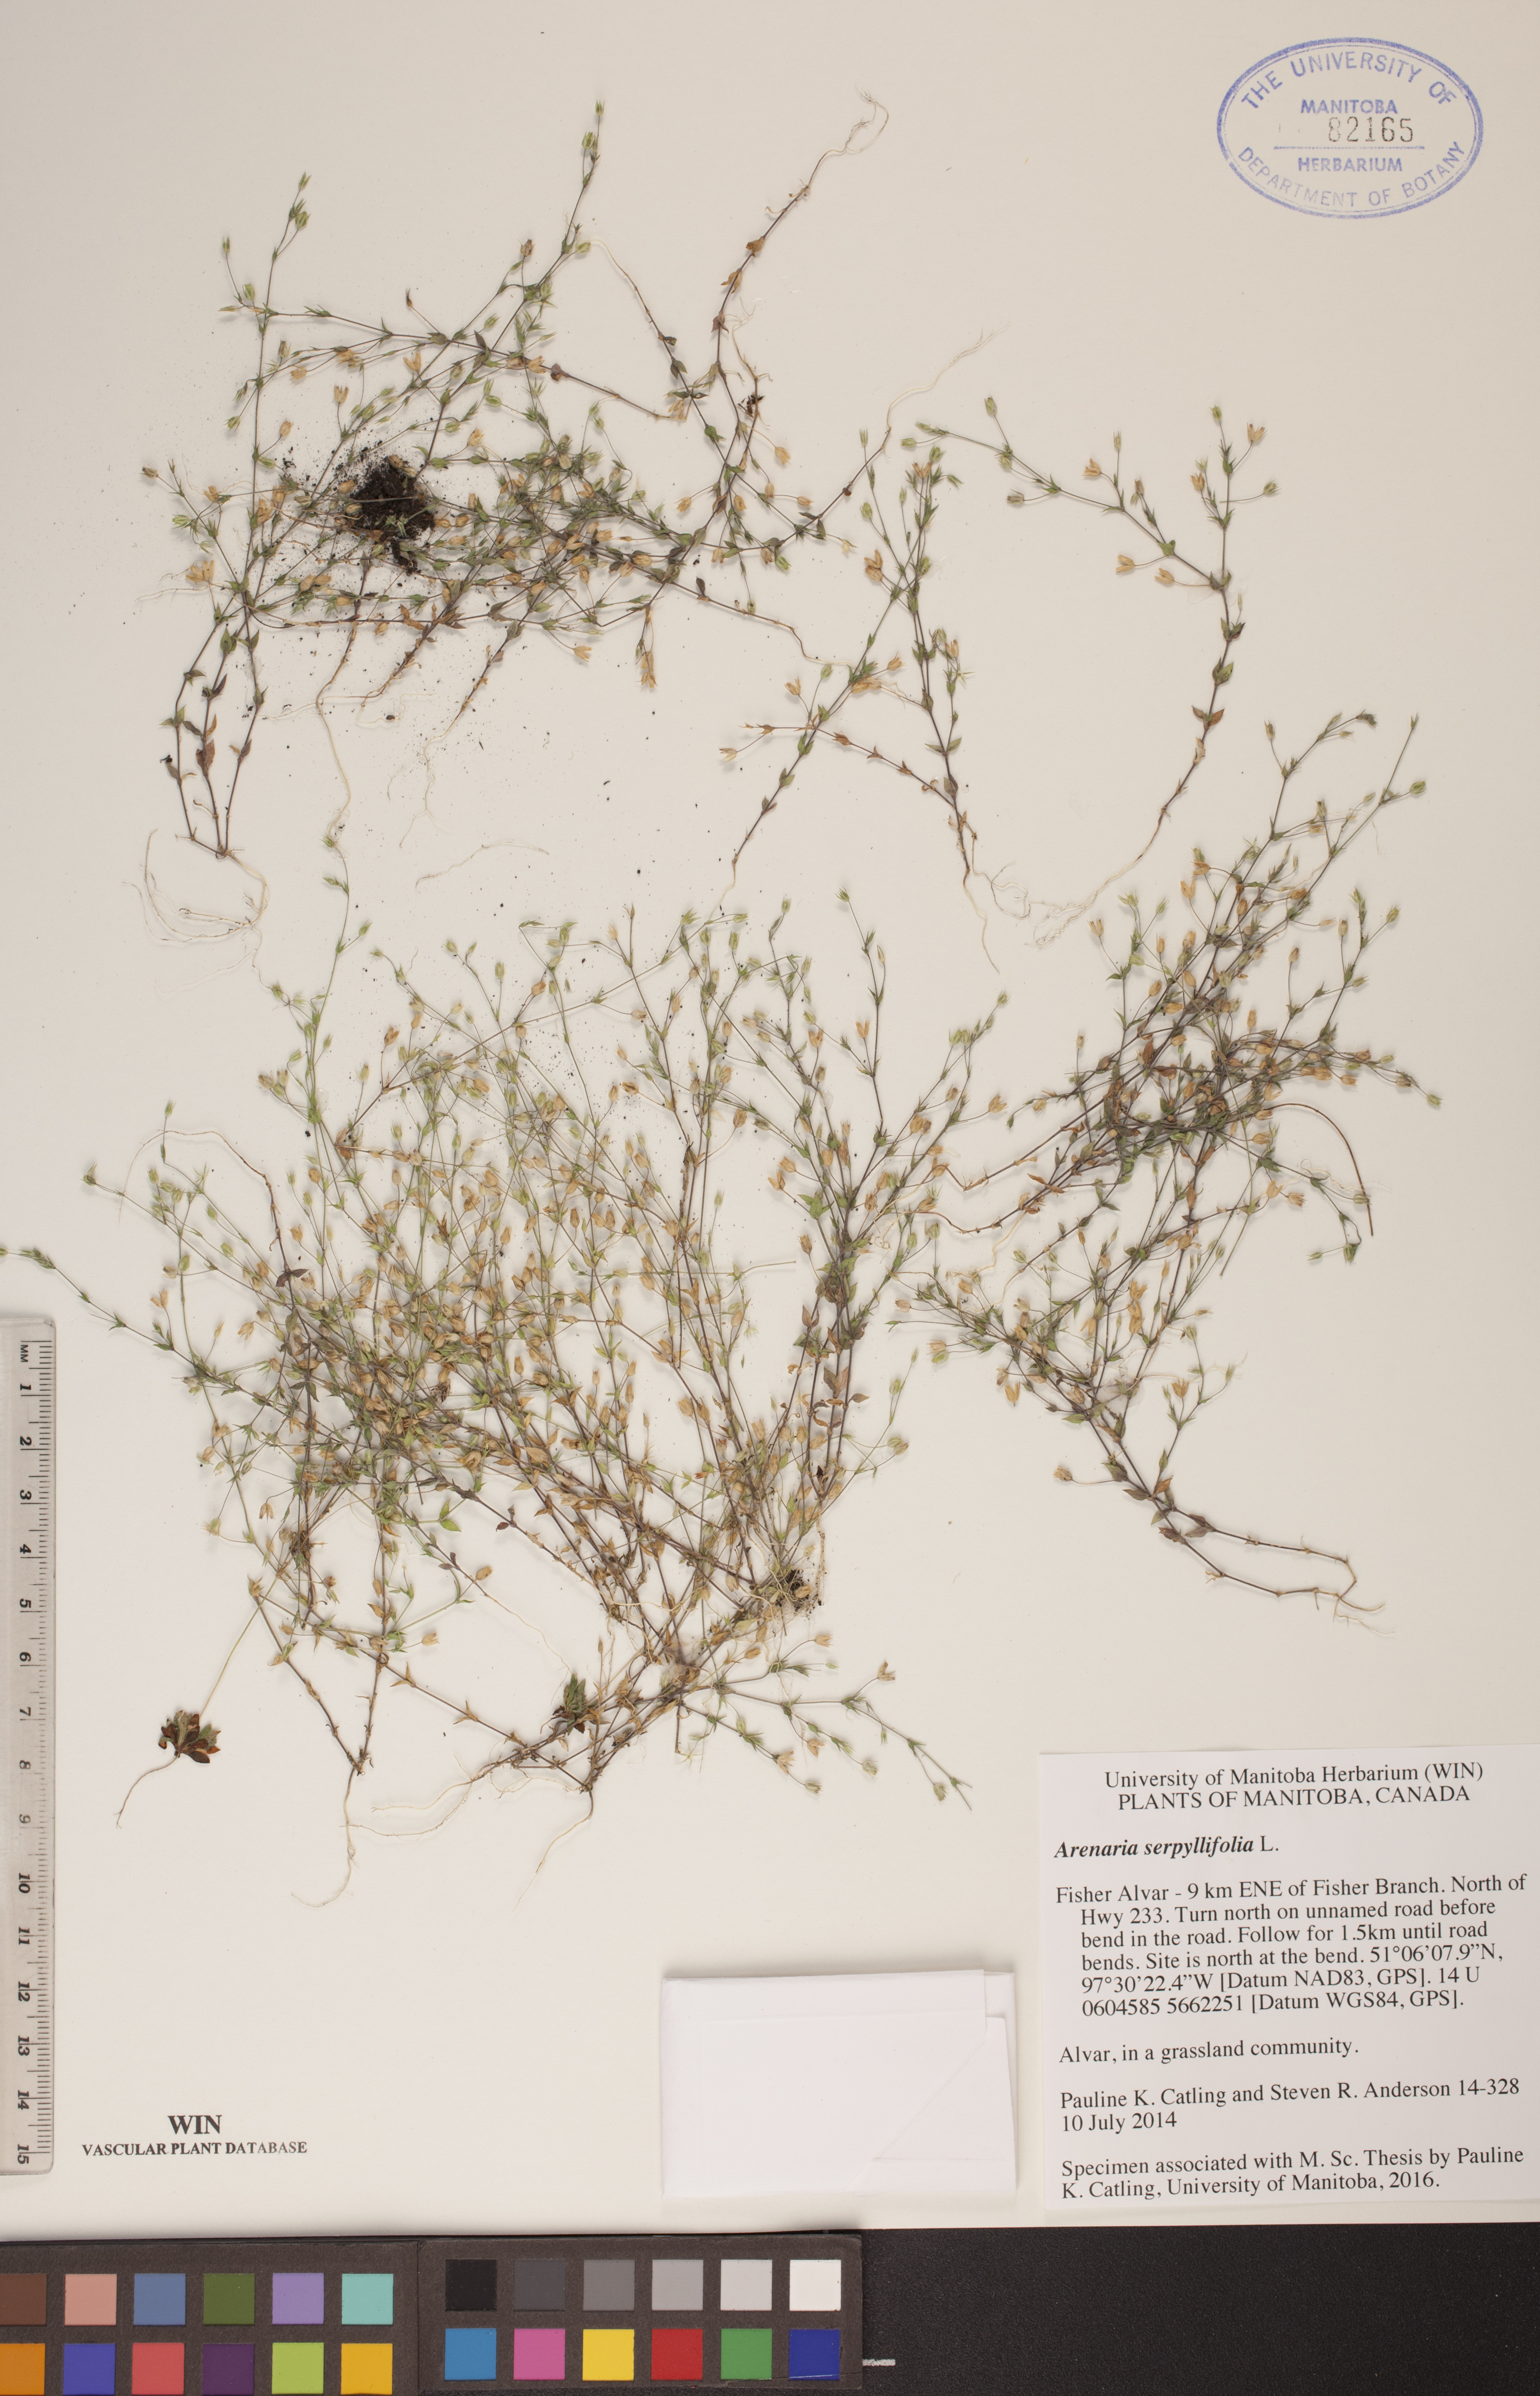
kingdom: Plantae
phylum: Tracheophyta
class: Magnoliopsida
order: Caryophyllales
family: Caryophyllaceae
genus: Arenaria
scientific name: Arenaria serpyllifolia
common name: Thyme-leaved sandwort
